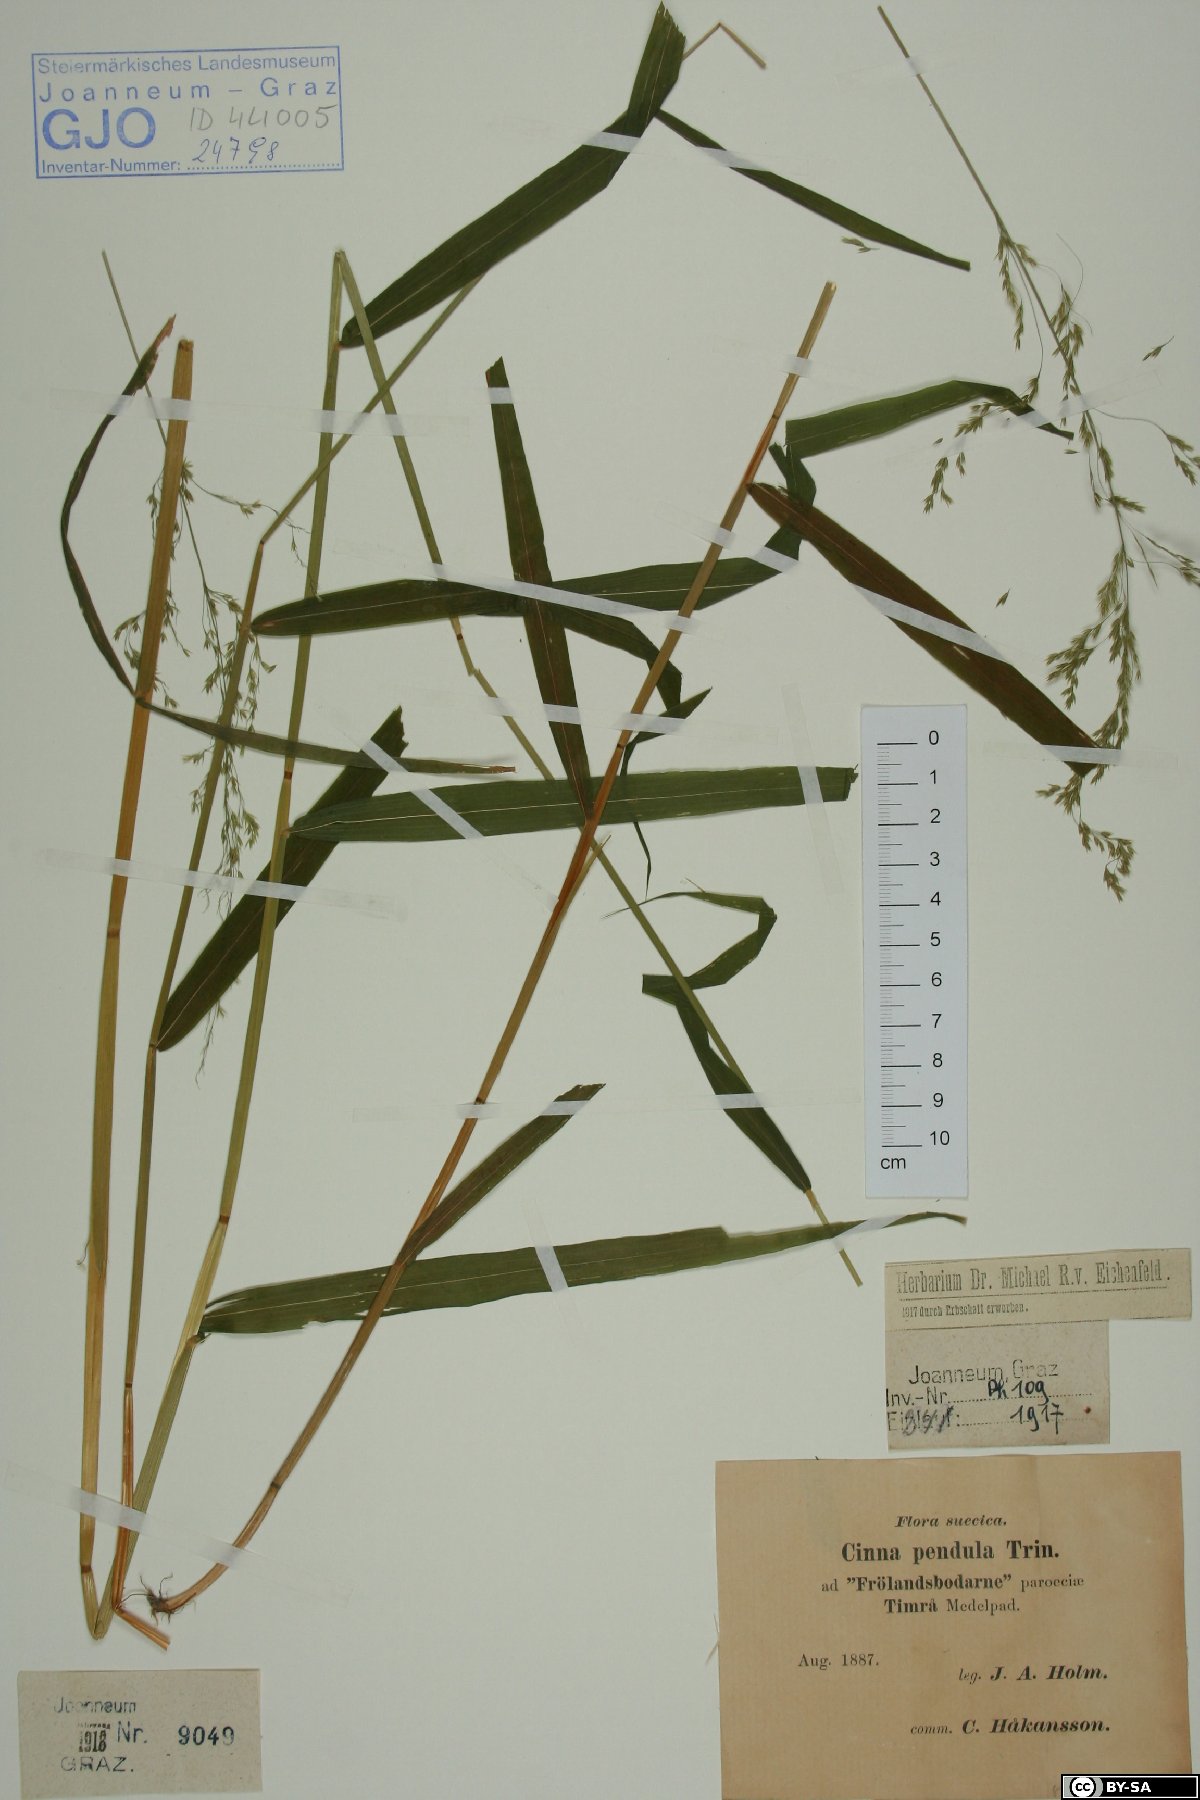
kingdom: Plantae
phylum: Tracheophyta
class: Liliopsida
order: Poales
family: Poaceae
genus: Cinna
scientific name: Cinna latifolia
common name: Drooping woodreed
